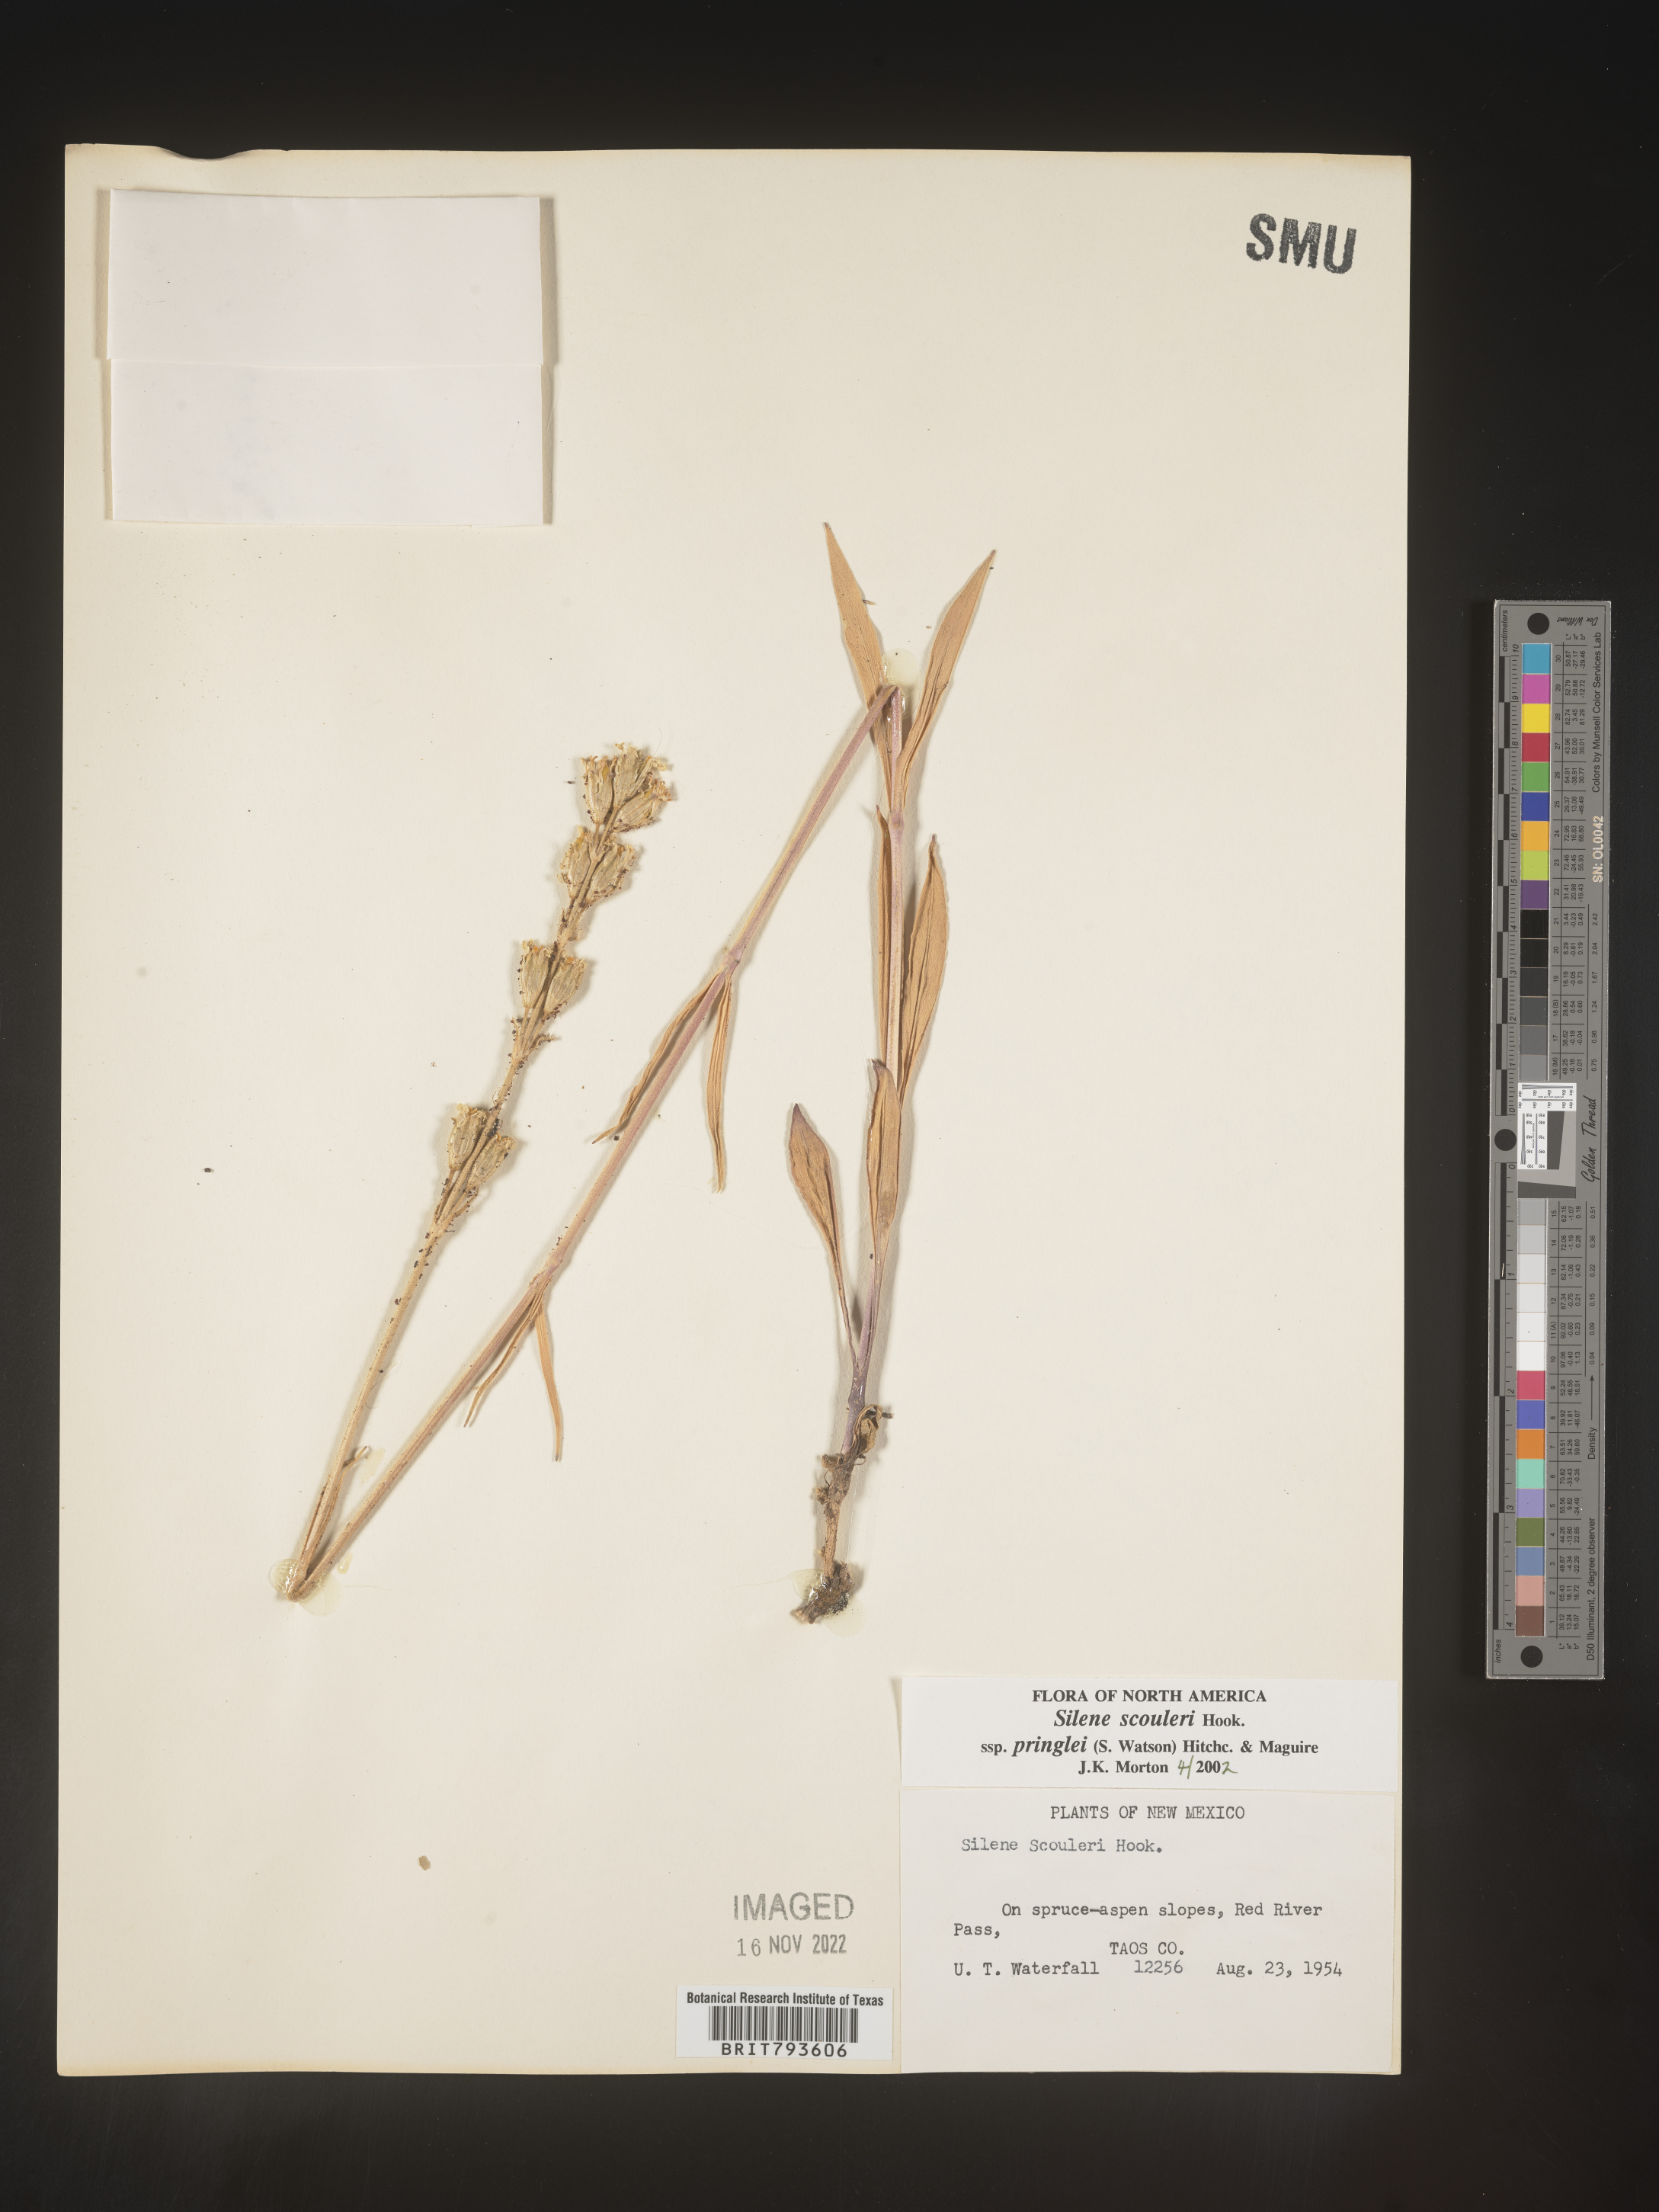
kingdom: Plantae
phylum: Tracheophyta
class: Magnoliopsida
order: Caryophyllales
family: Caryophyllaceae
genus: Silene
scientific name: Silene scouleri
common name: Scouler's campion
